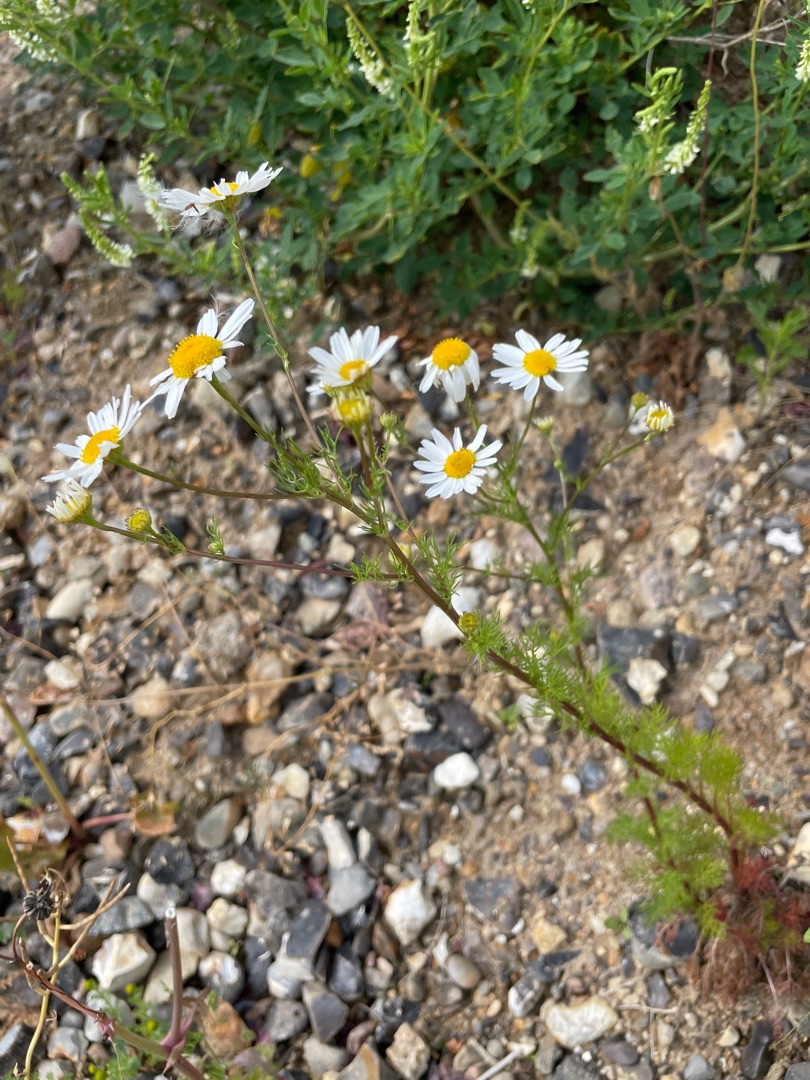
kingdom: Plantae
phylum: Tracheophyta
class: Magnoliopsida
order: Asterales
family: Asteraceae
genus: Tripleurospermum
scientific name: Tripleurospermum inodorum
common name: Lugtløs kamille
